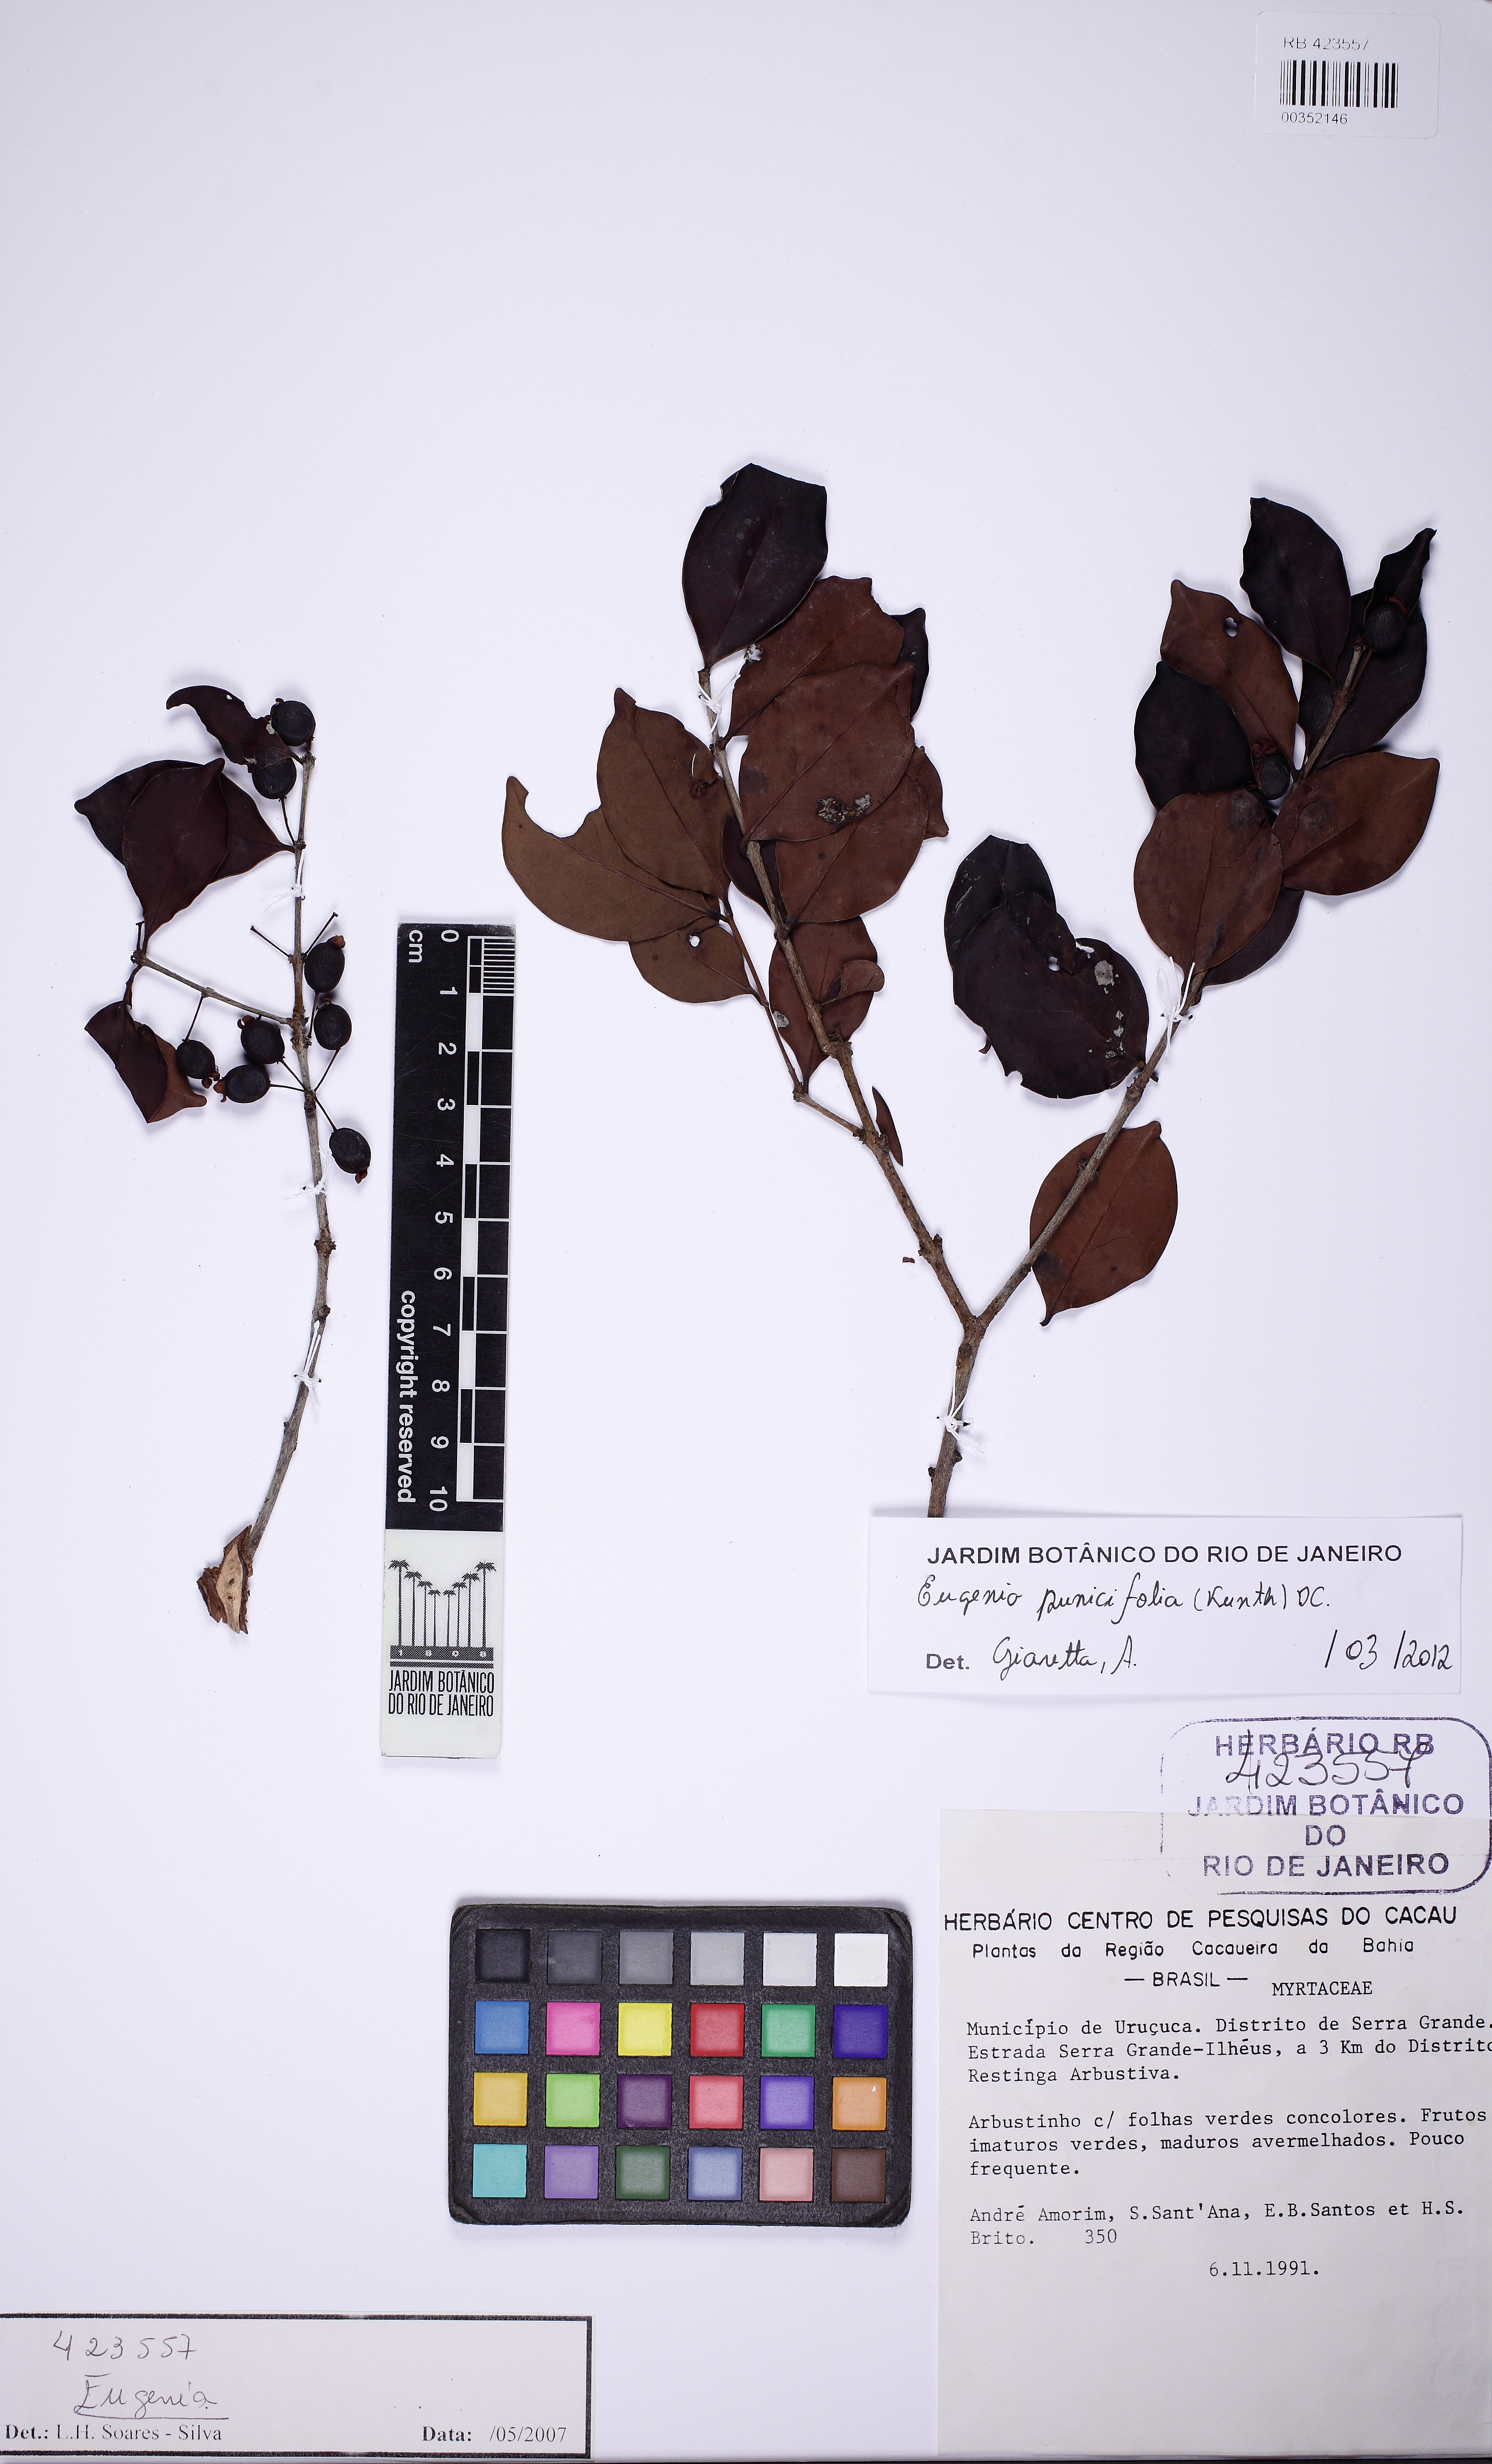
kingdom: Plantae
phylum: Tracheophyta
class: Magnoliopsida
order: Myrtales
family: Myrtaceae
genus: Eugenia
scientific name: Eugenia punicifolia
